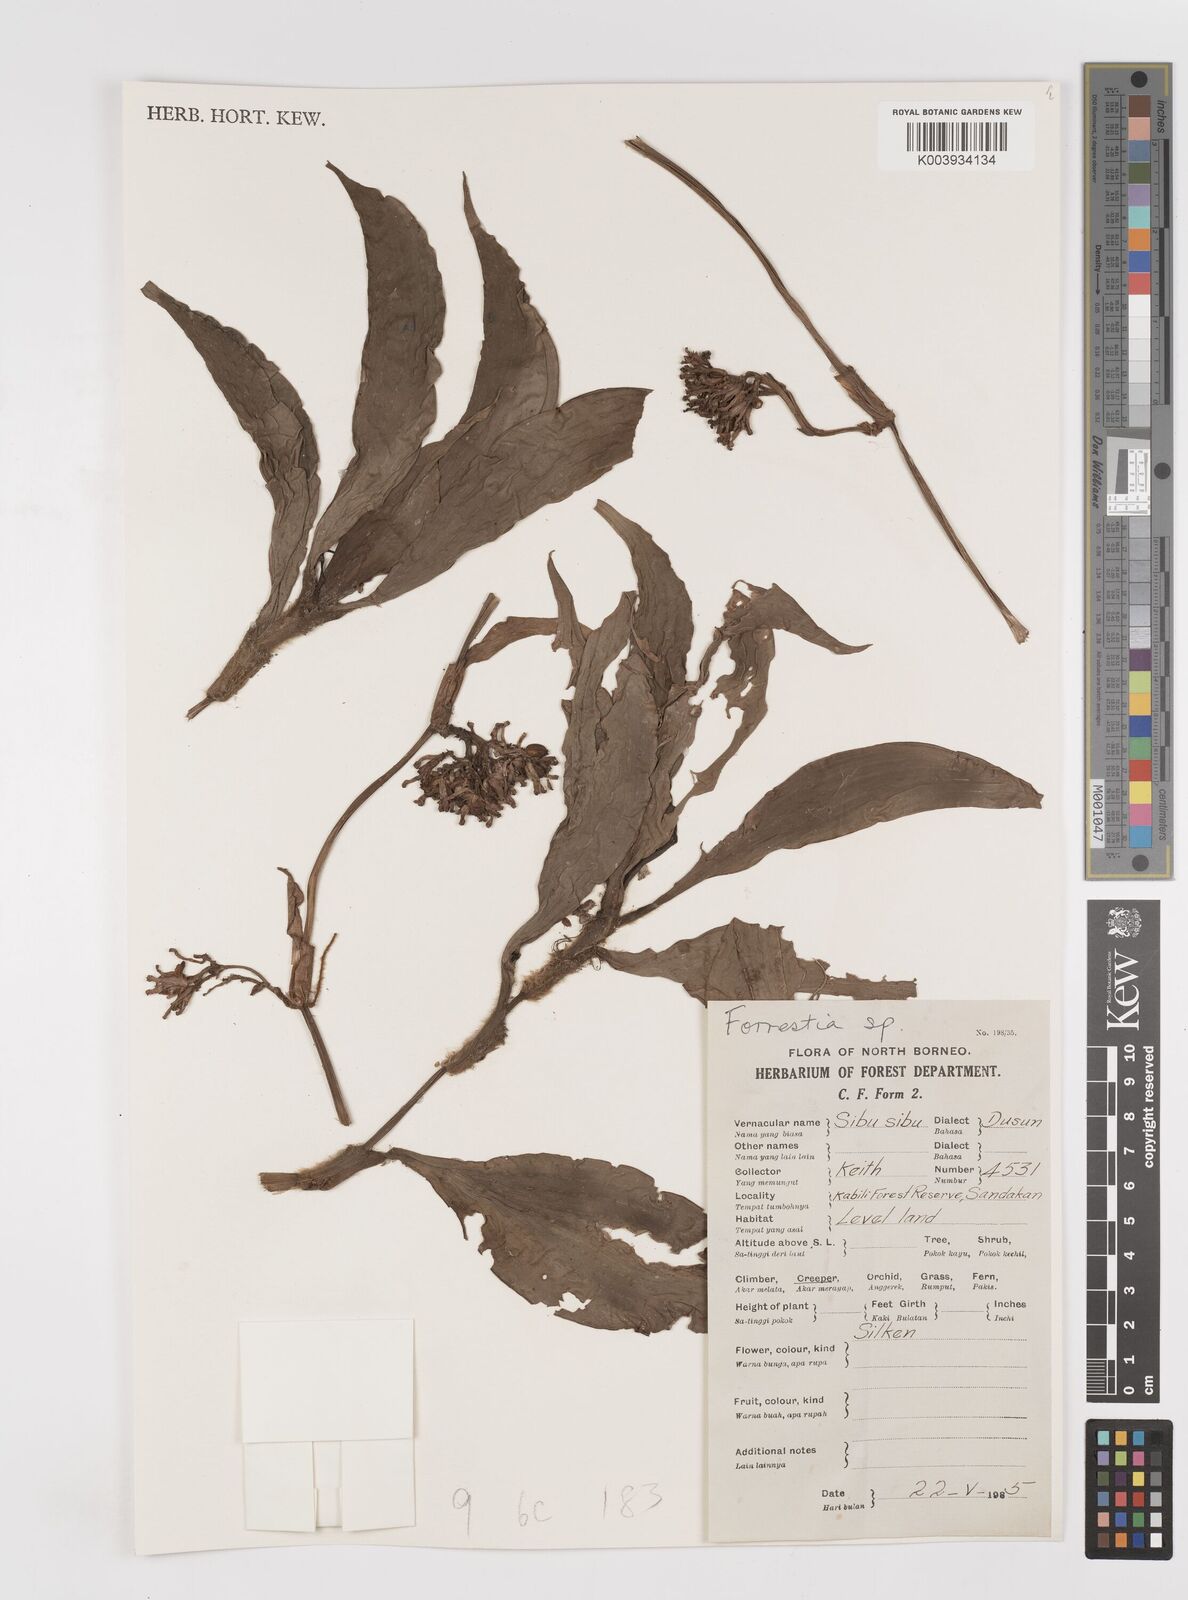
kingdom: Plantae
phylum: Tracheophyta
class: Liliopsida
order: Commelinales
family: Commelinaceae
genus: Amischotolype
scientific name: Amischotolype
